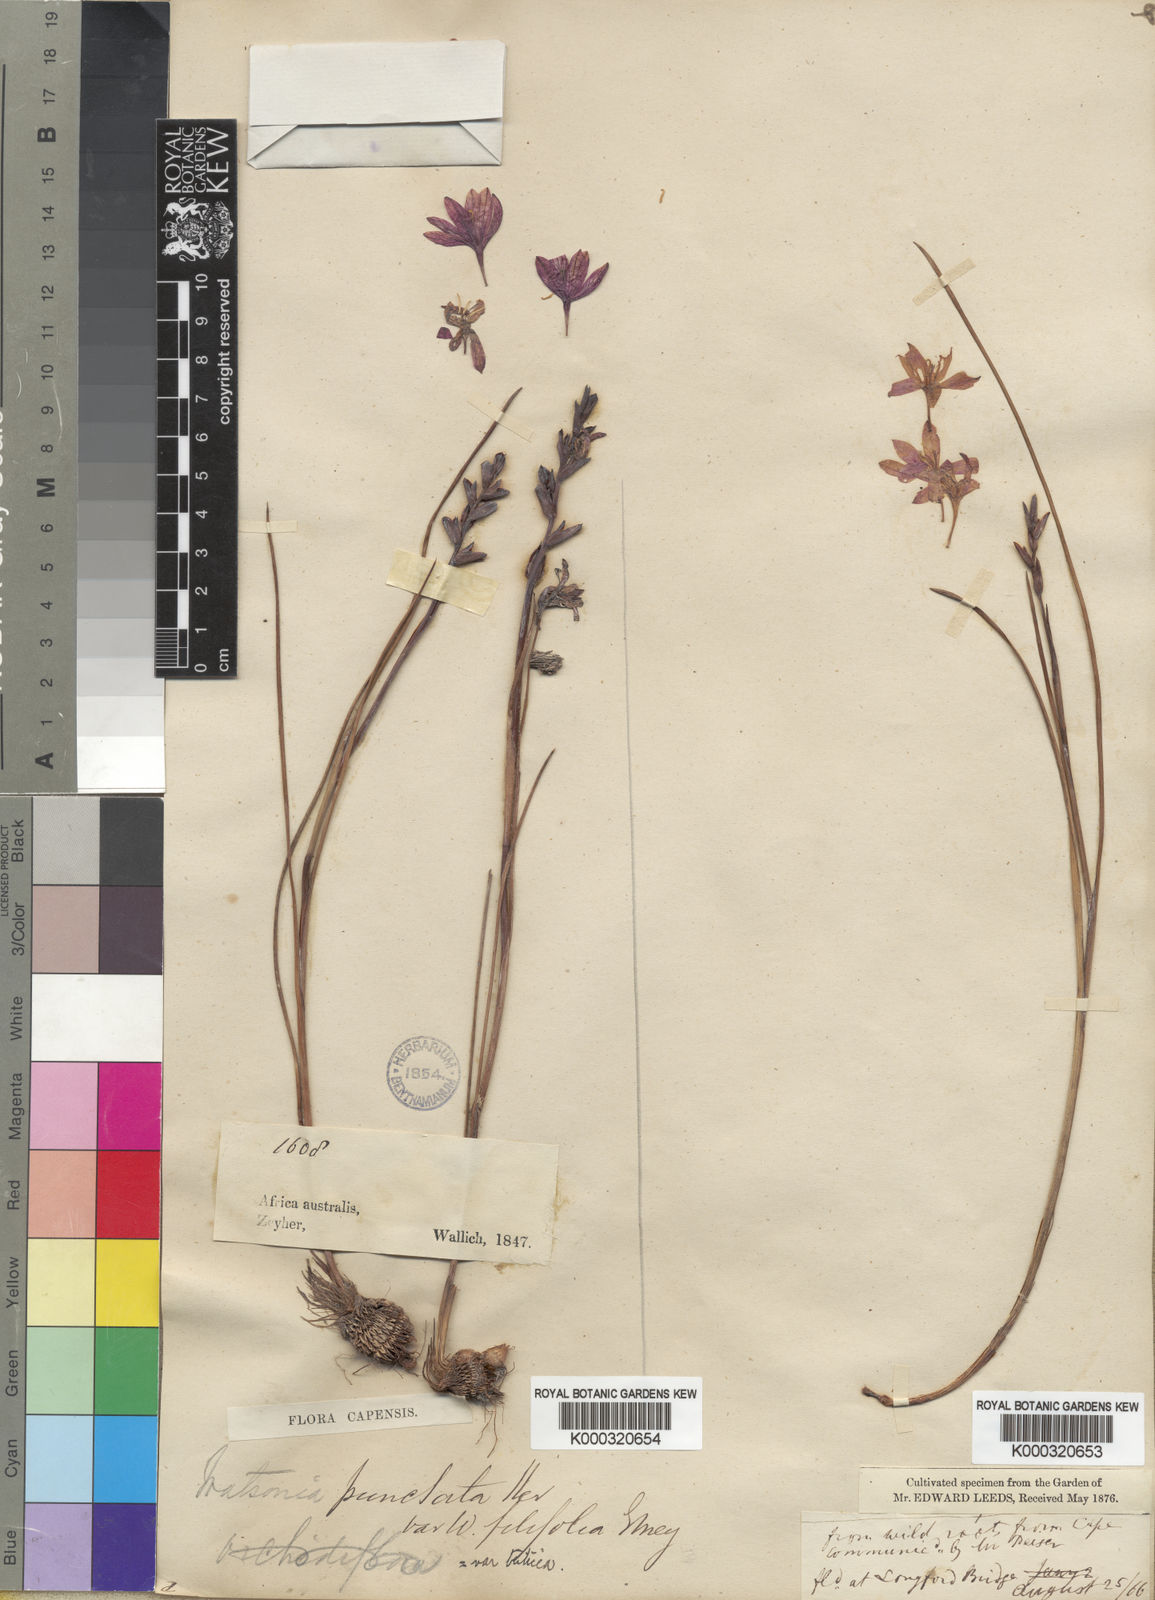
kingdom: Plantae
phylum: Tracheophyta
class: Liliopsida
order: Asparagales
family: Iridaceae
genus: Thereianthus
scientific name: Thereianthus spicatus
